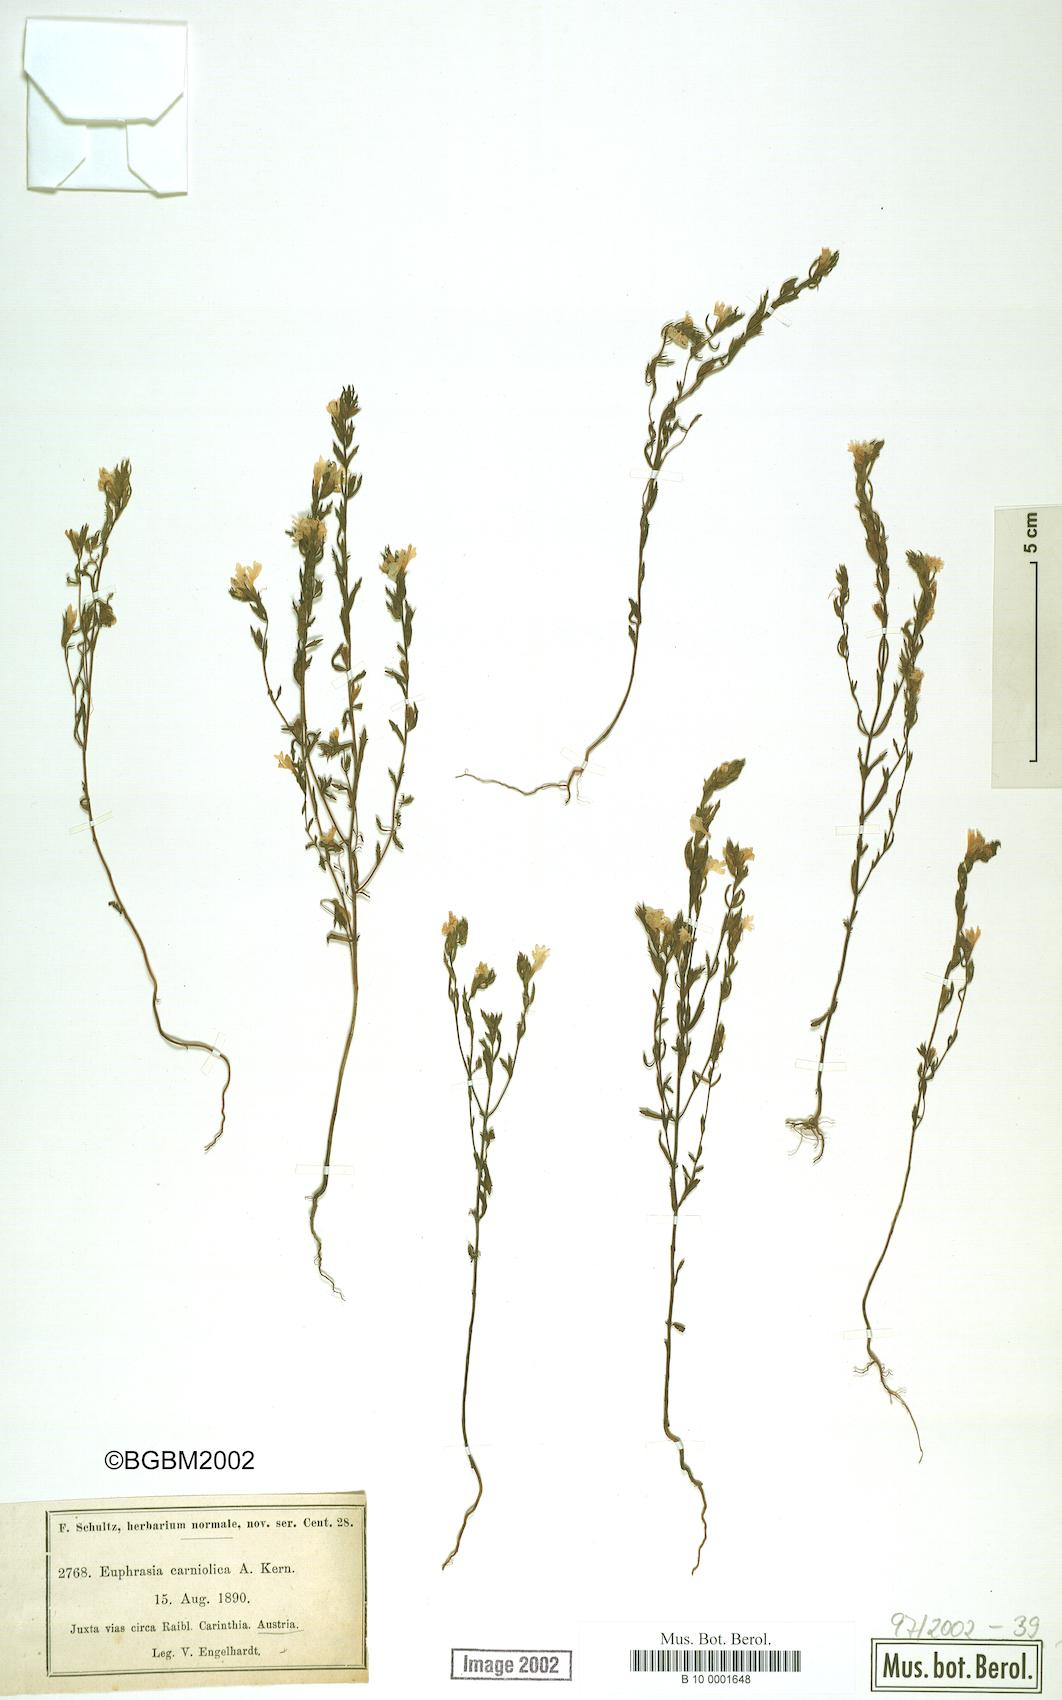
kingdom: Plantae
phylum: Tracheophyta
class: Magnoliopsida
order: Lamiales
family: Orobanchaceae
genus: Euphrasia
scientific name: Euphrasia officinalis
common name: Eyebright
